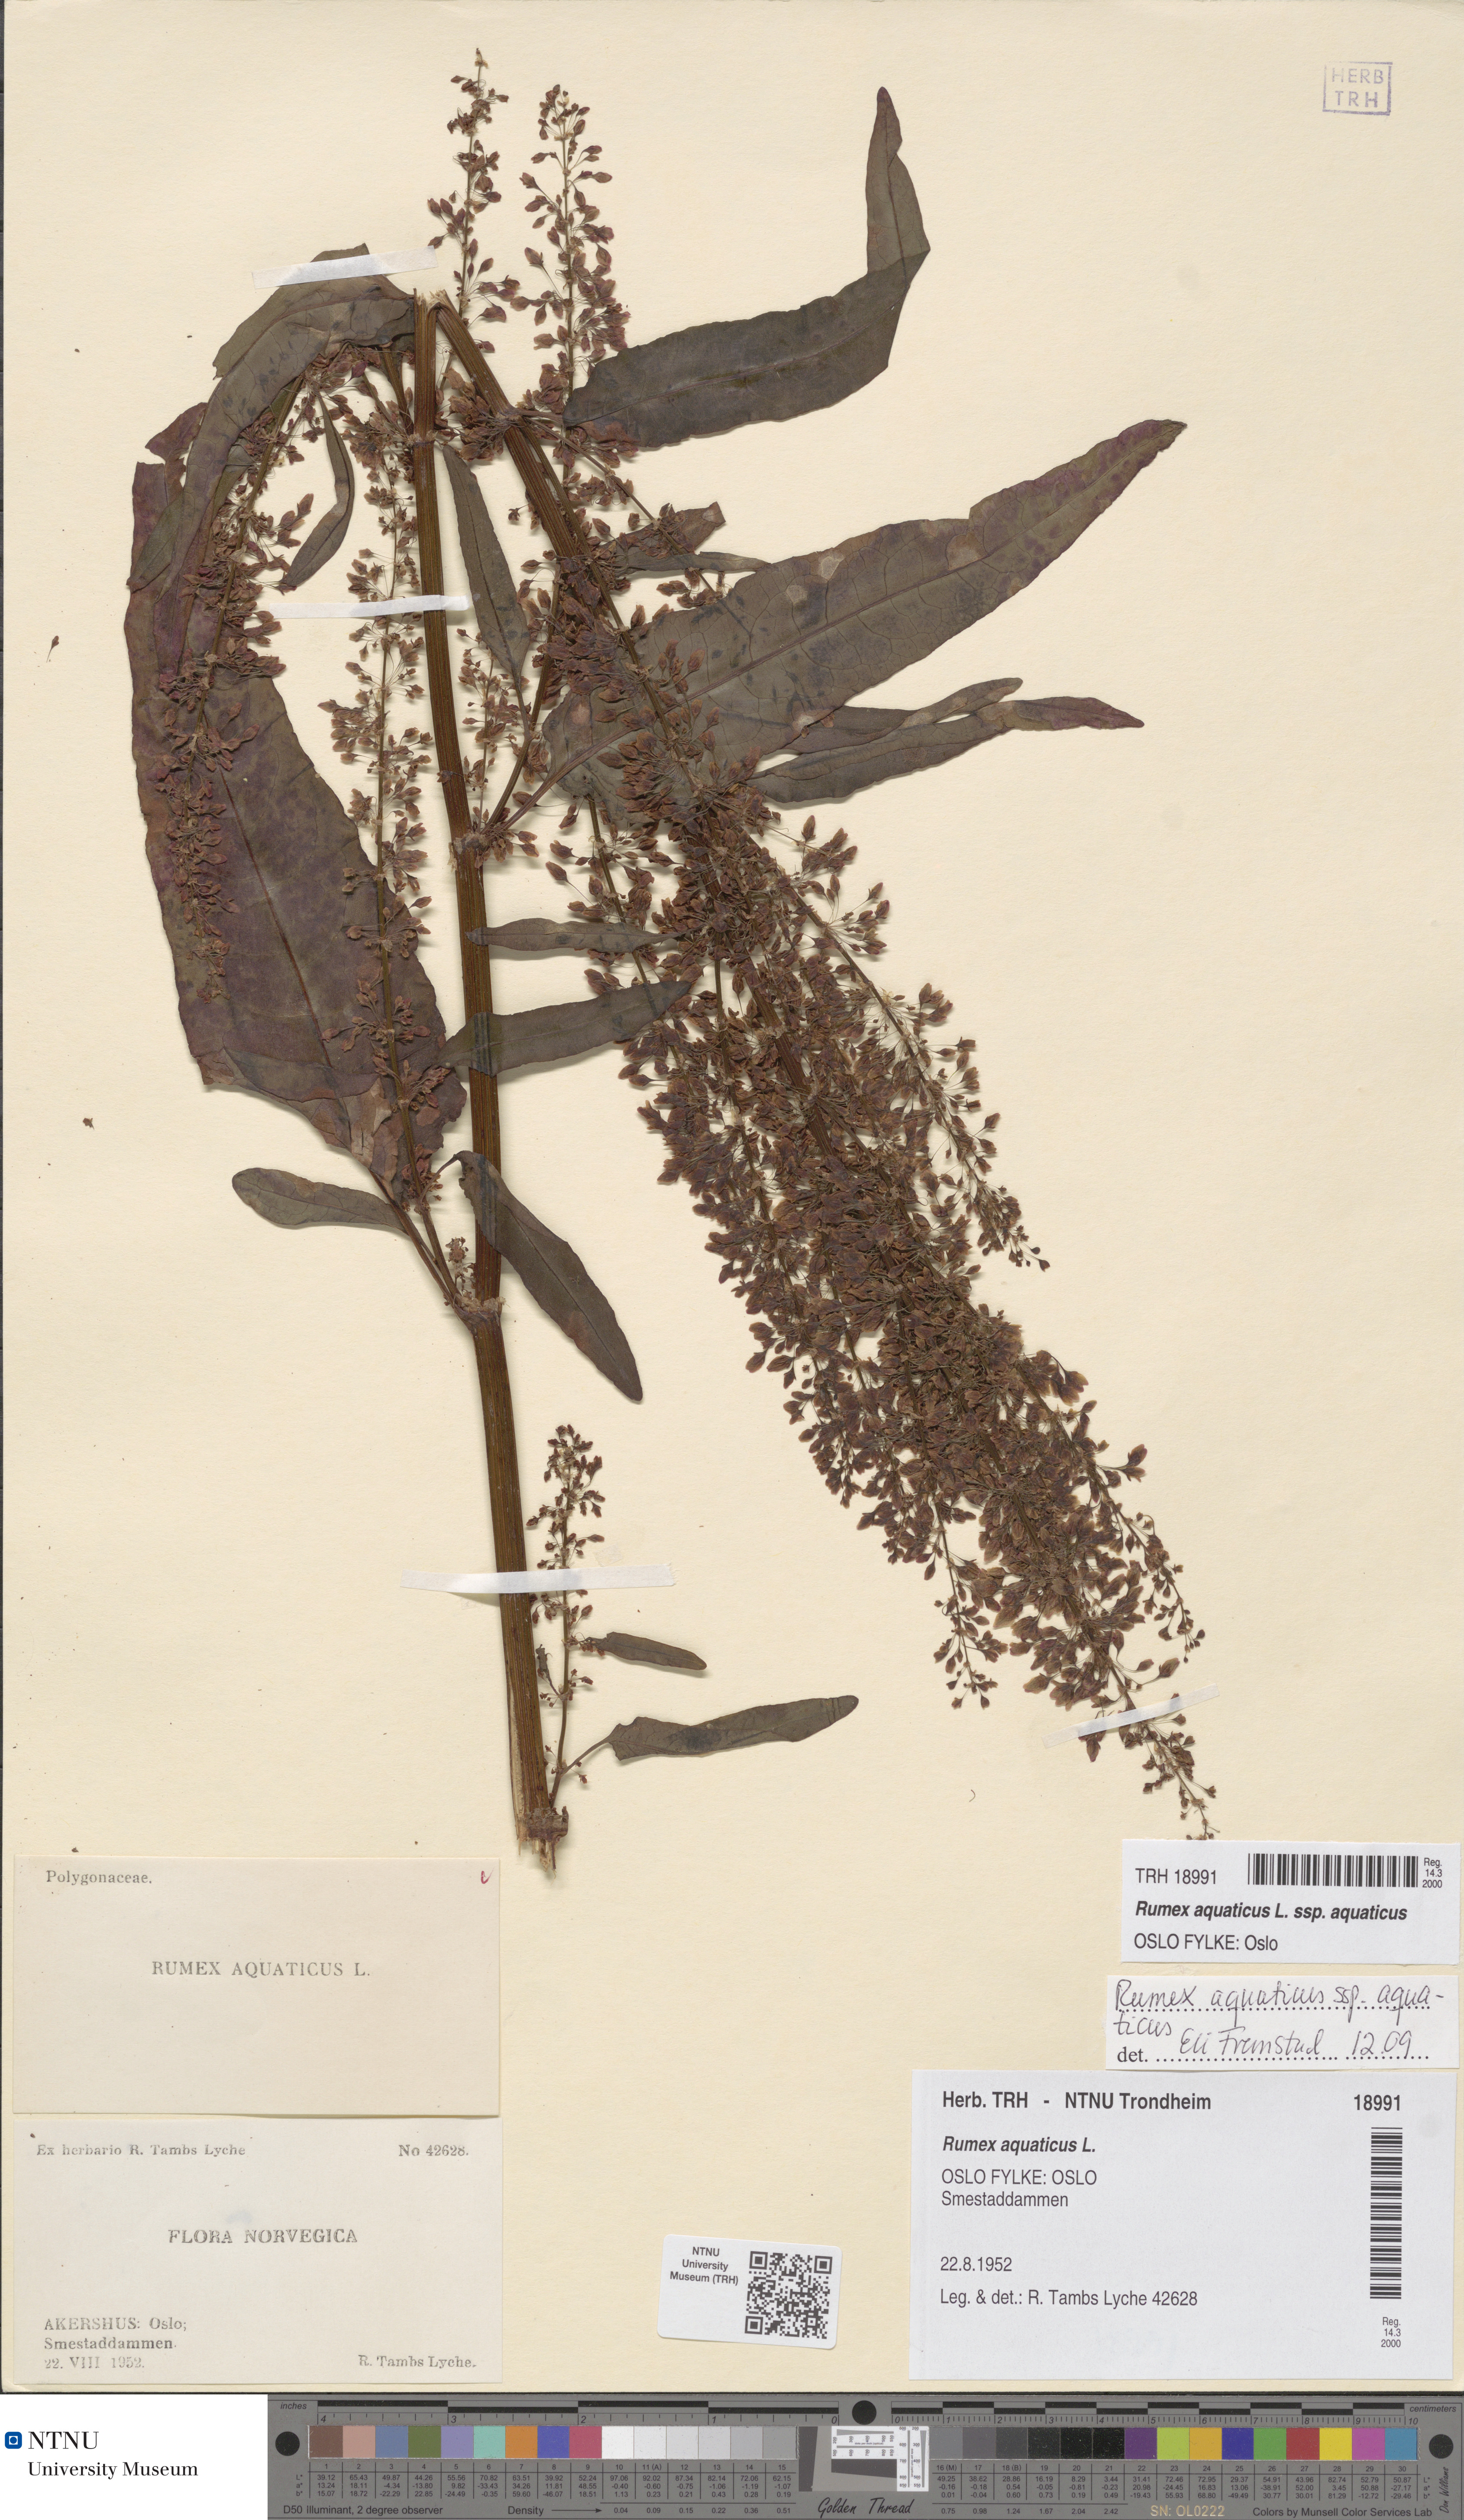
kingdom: Plantae
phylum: Tracheophyta
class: Magnoliopsida
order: Caryophyllales
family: Polygonaceae
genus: Rumex
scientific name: Rumex aquaticus
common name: Scottish dock
